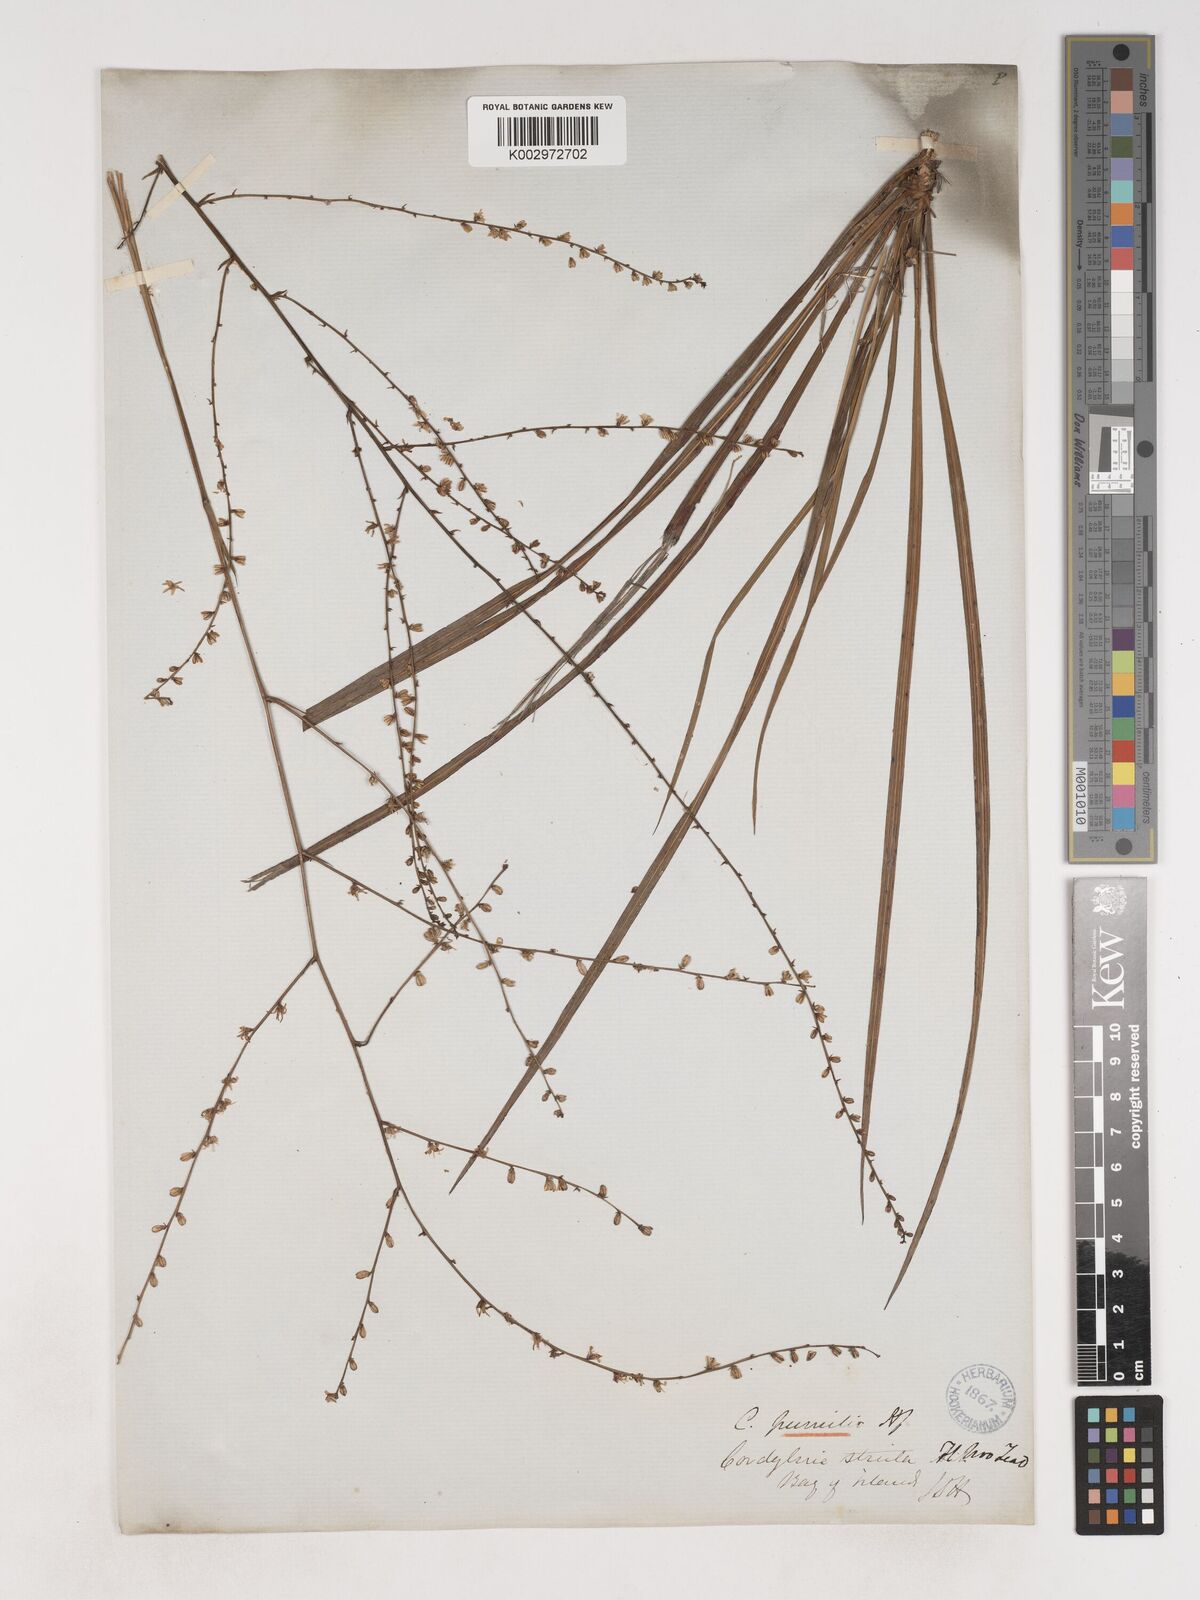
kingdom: Plantae
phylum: Tracheophyta
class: Liliopsida
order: Asparagales
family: Asparagaceae
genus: Cordyline
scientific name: Cordyline pumilio
